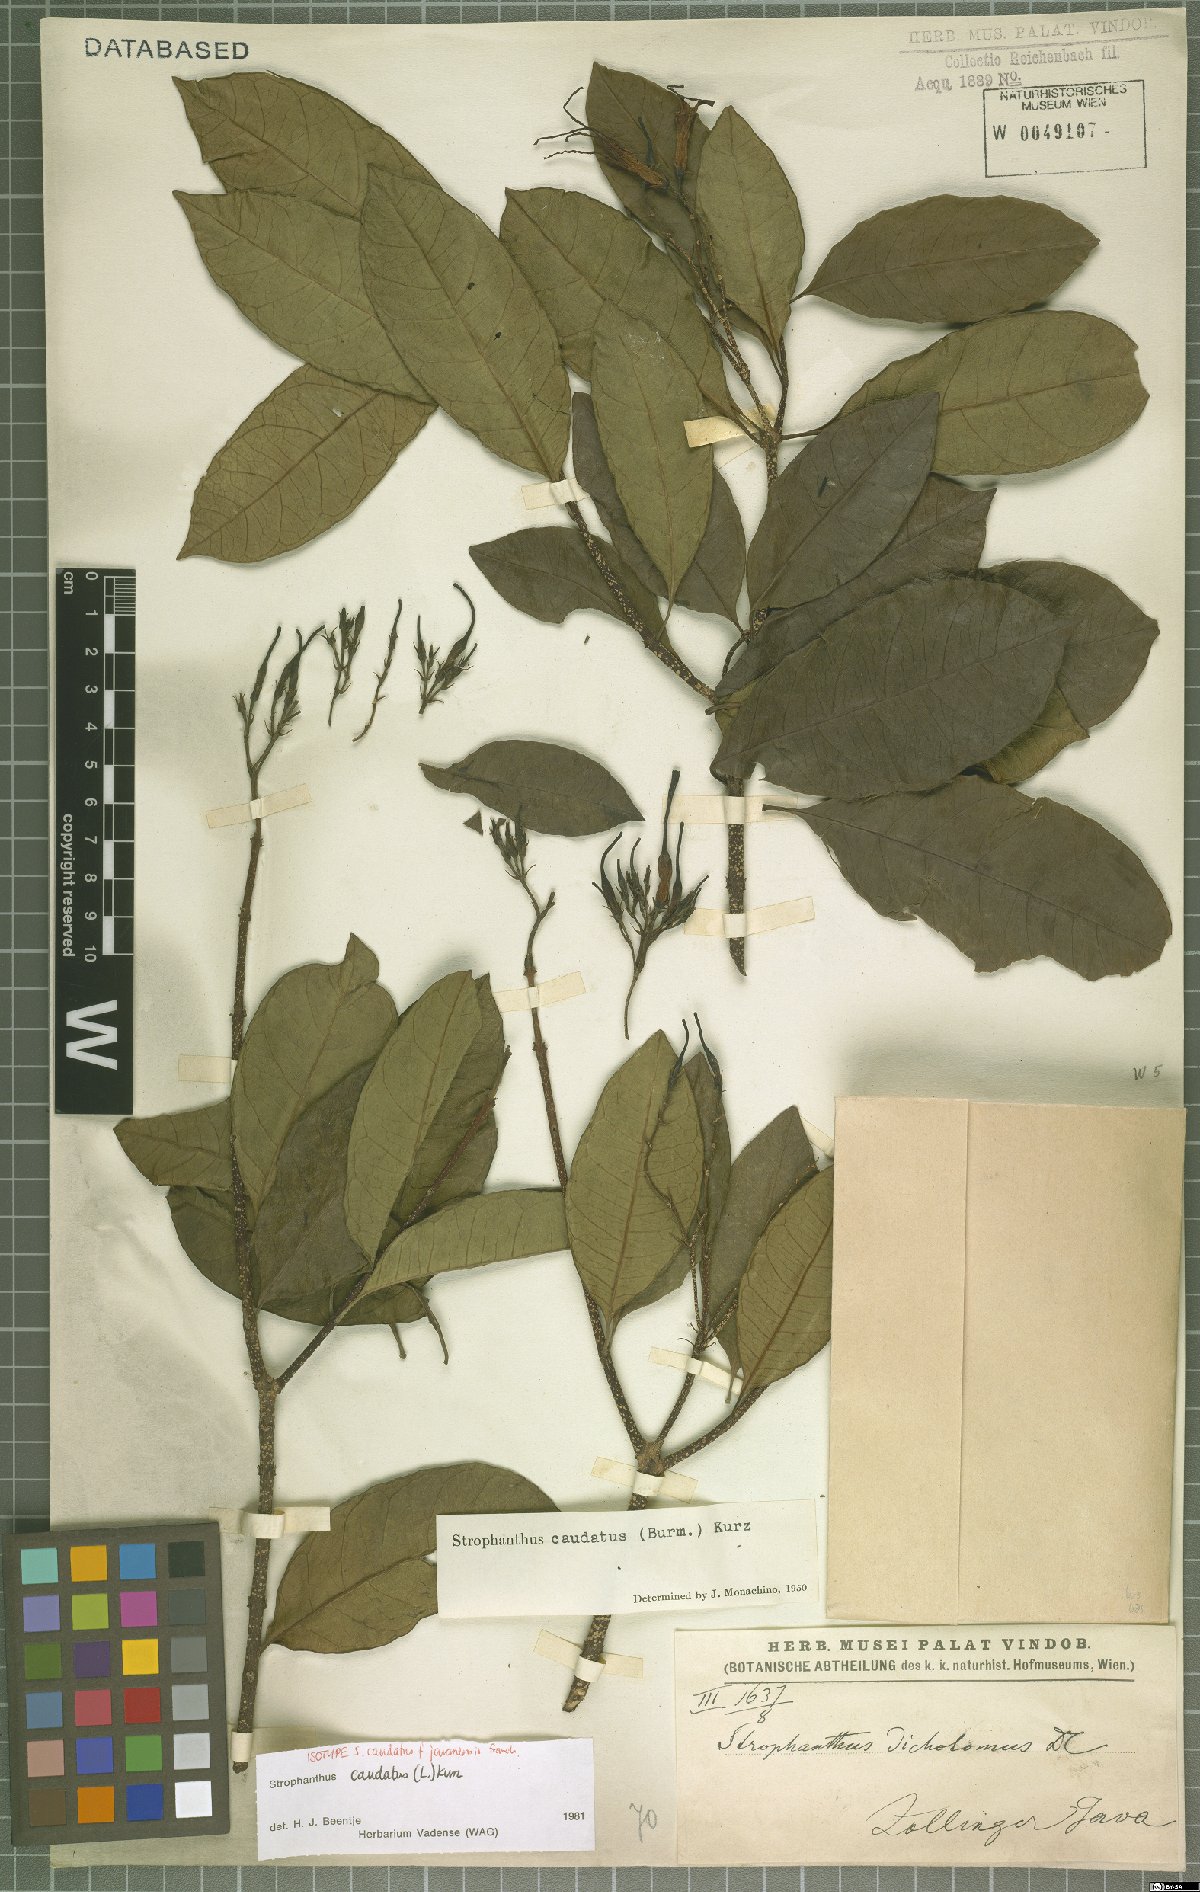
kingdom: Plantae
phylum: Tracheophyta
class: Magnoliopsida
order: Gentianales
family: Apocynaceae
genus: Strophanthus
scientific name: Strophanthus caudatus
